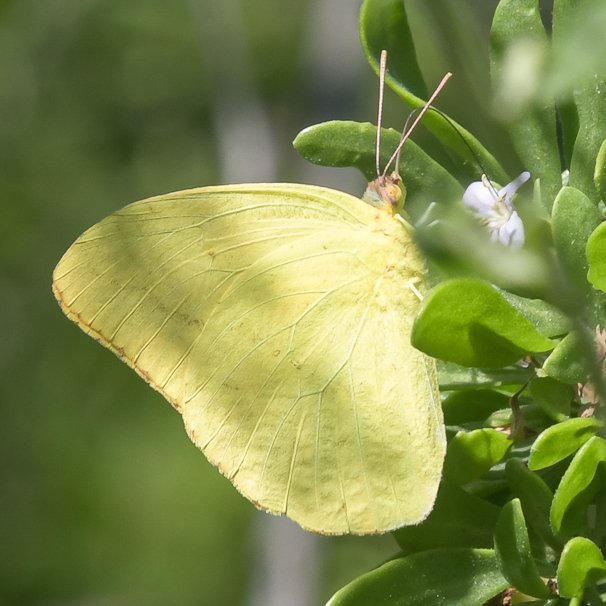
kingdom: Animalia
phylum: Arthropoda
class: Insecta
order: Lepidoptera
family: Pieridae
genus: Phoebis
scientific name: Phoebis agarithe
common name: Large Orange Sulphur
